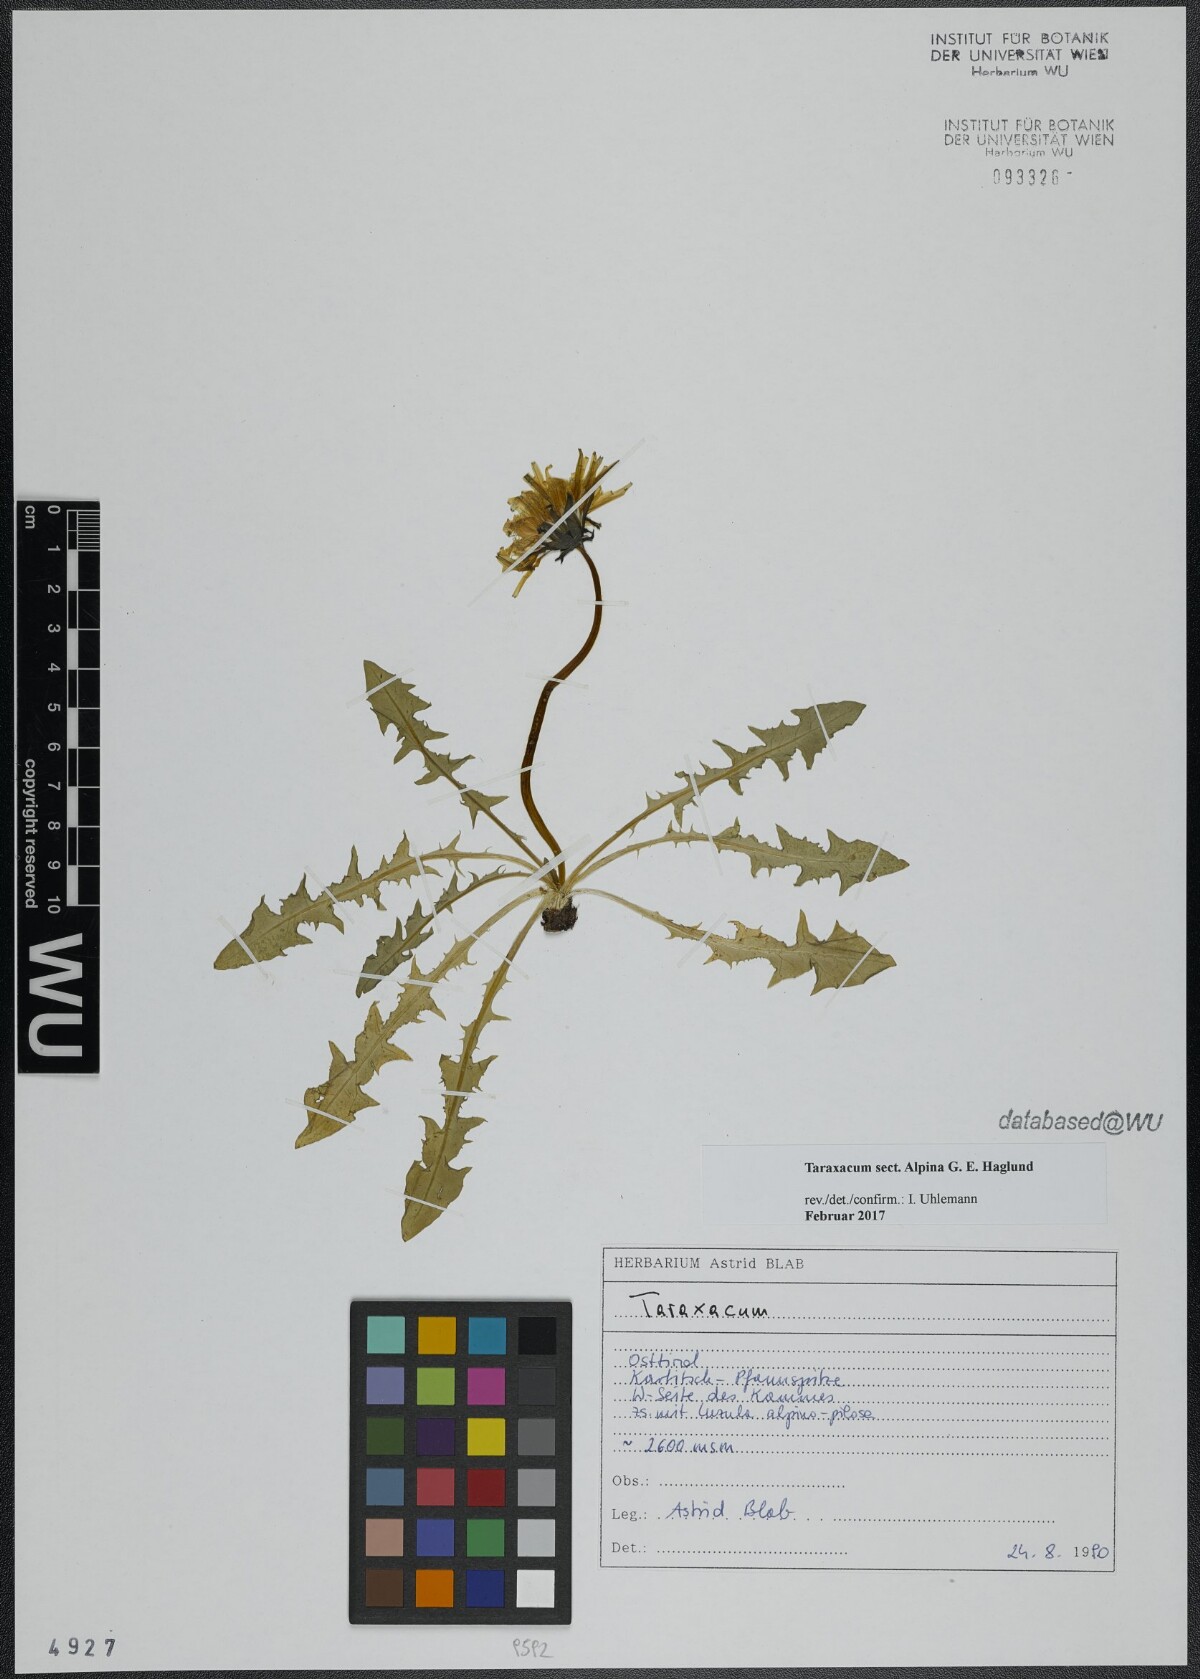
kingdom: Plantae
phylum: Tracheophyta
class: Magnoliopsida
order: Asterales
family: Asteraceae
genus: Taraxacum
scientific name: Taraxacum
